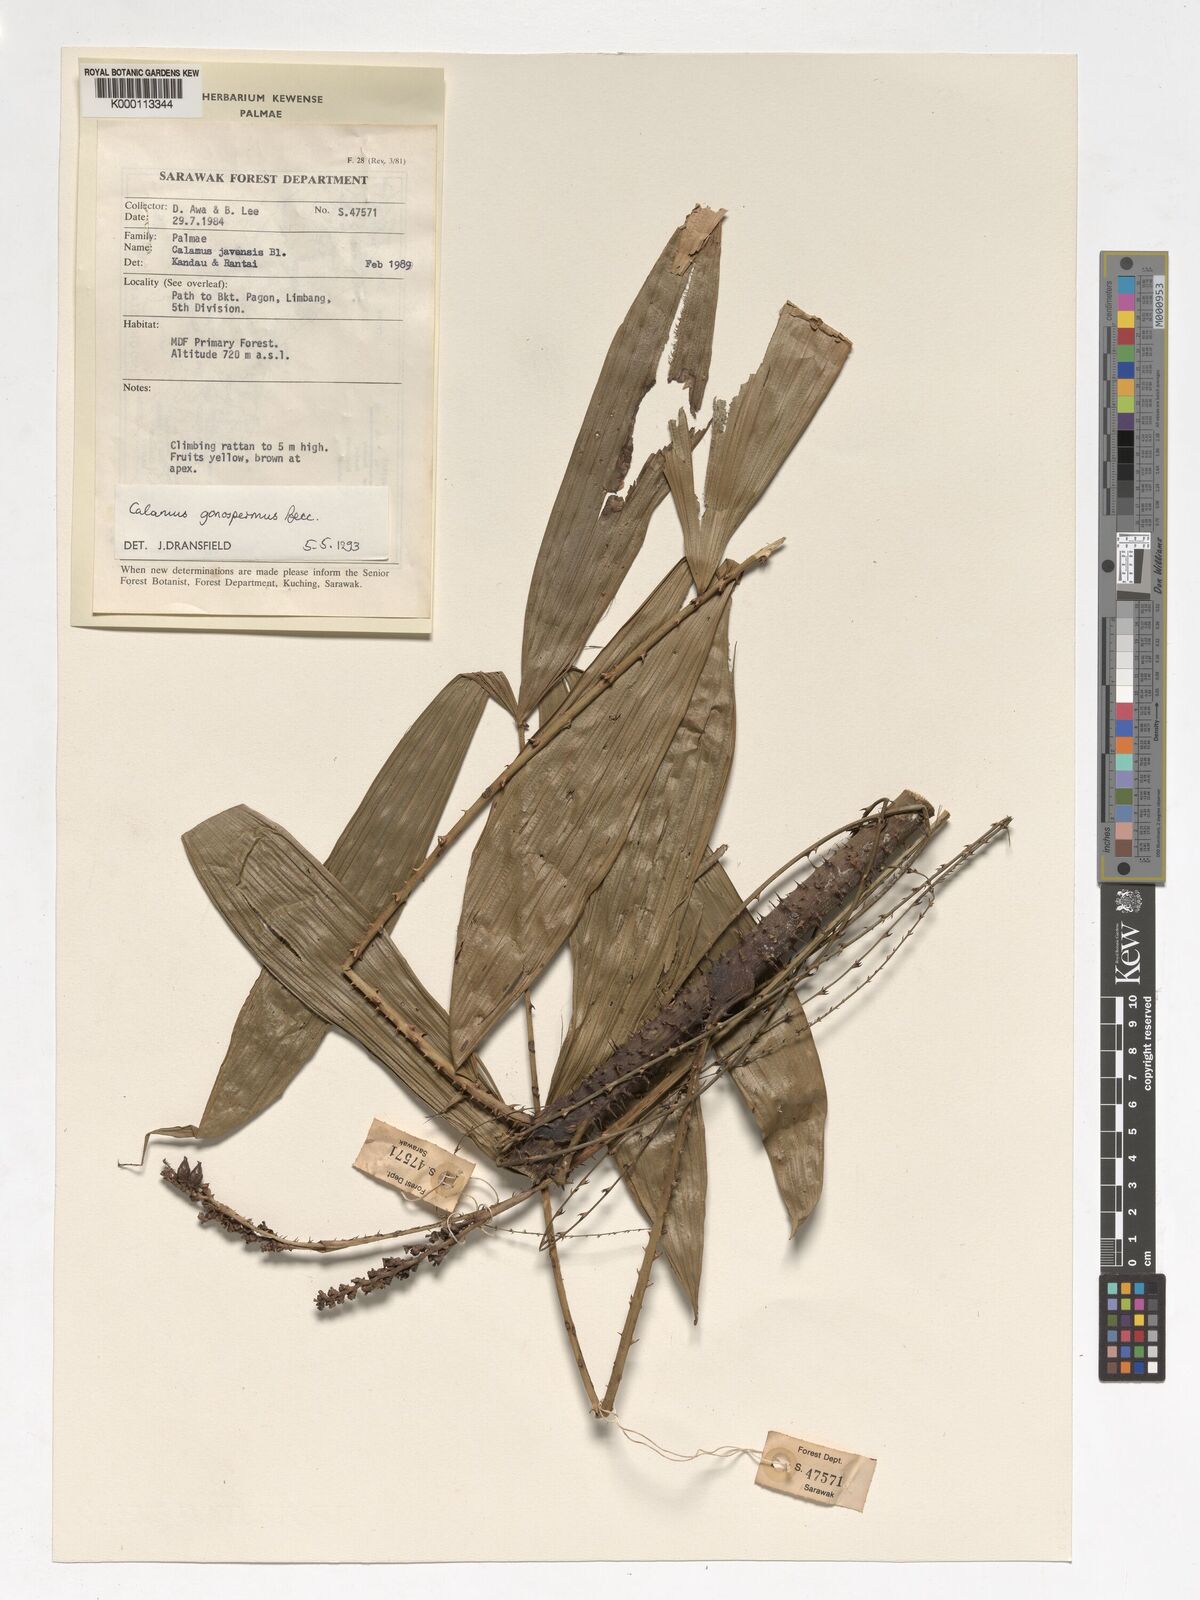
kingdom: Plantae
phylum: Tracheophyta
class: Liliopsida
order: Arecales
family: Arecaceae
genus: Calamus
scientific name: Calamus gonospermus
